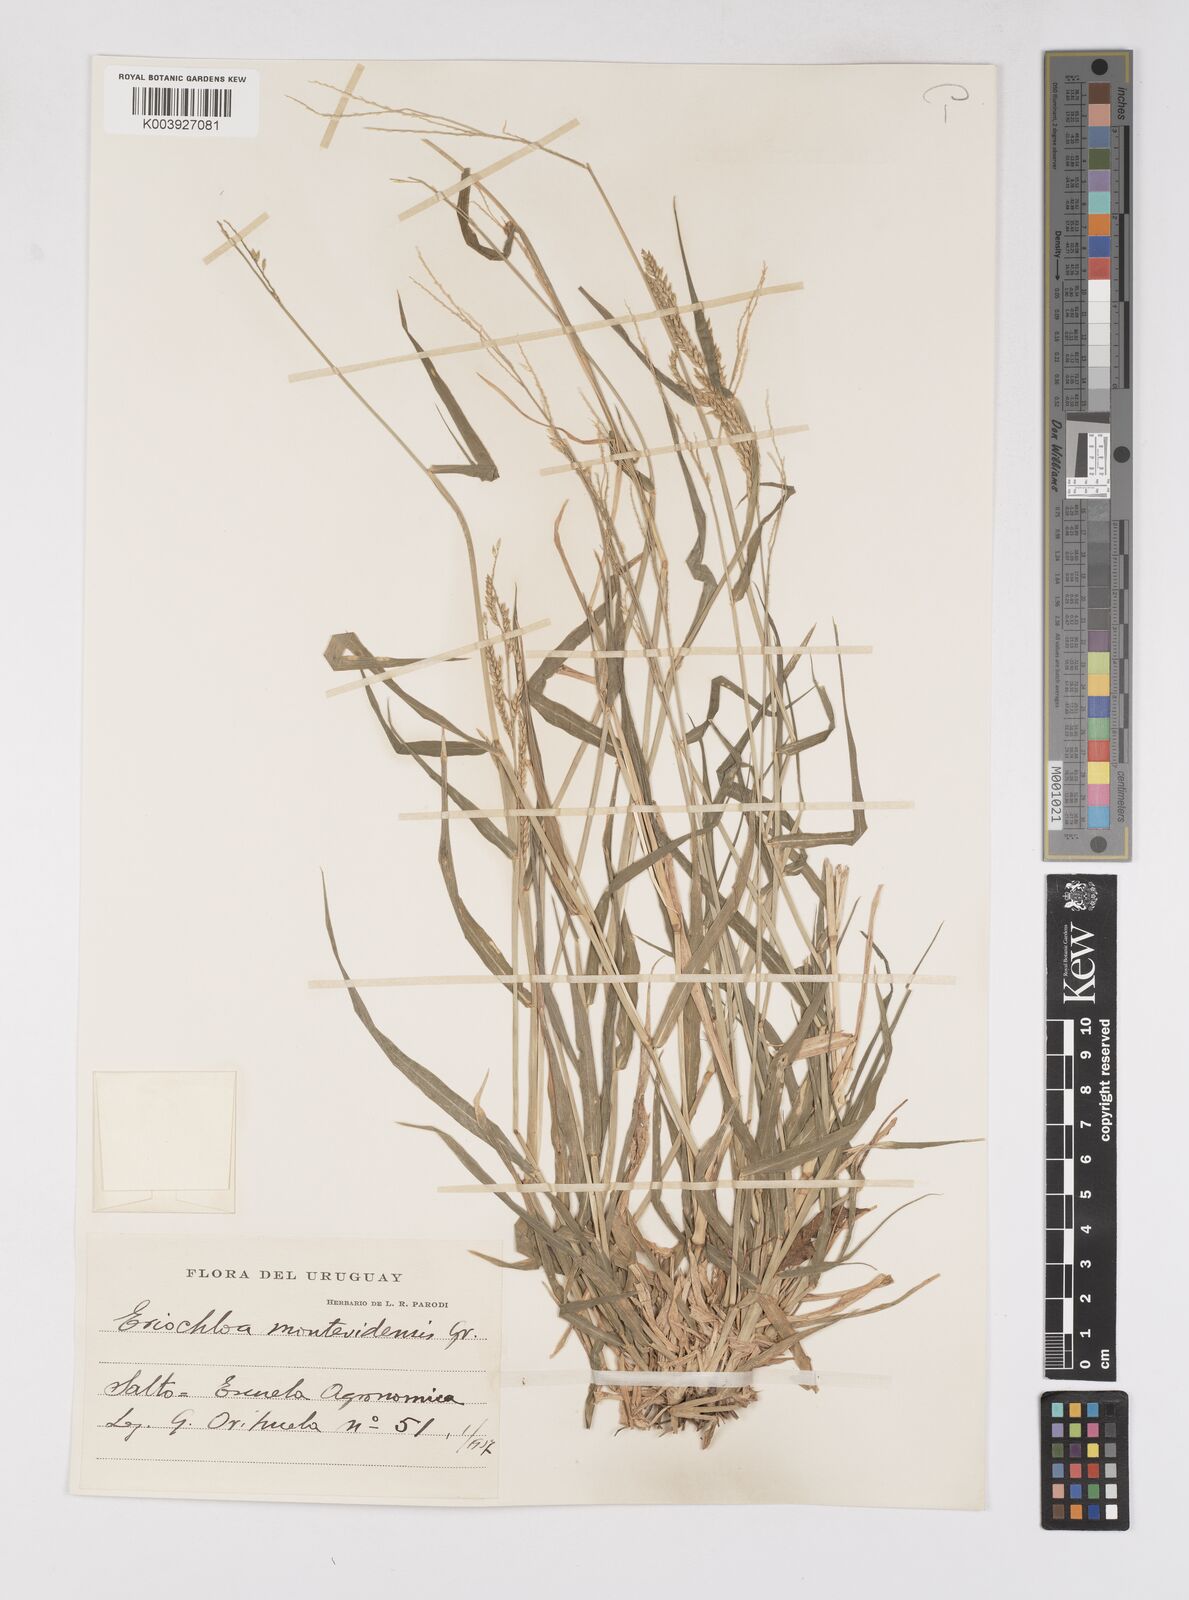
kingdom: Plantae
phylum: Tracheophyta
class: Liliopsida
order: Poales
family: Poaceae
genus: Eriochloa
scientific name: Eriochloa punctata
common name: Louisiana cupgrass
